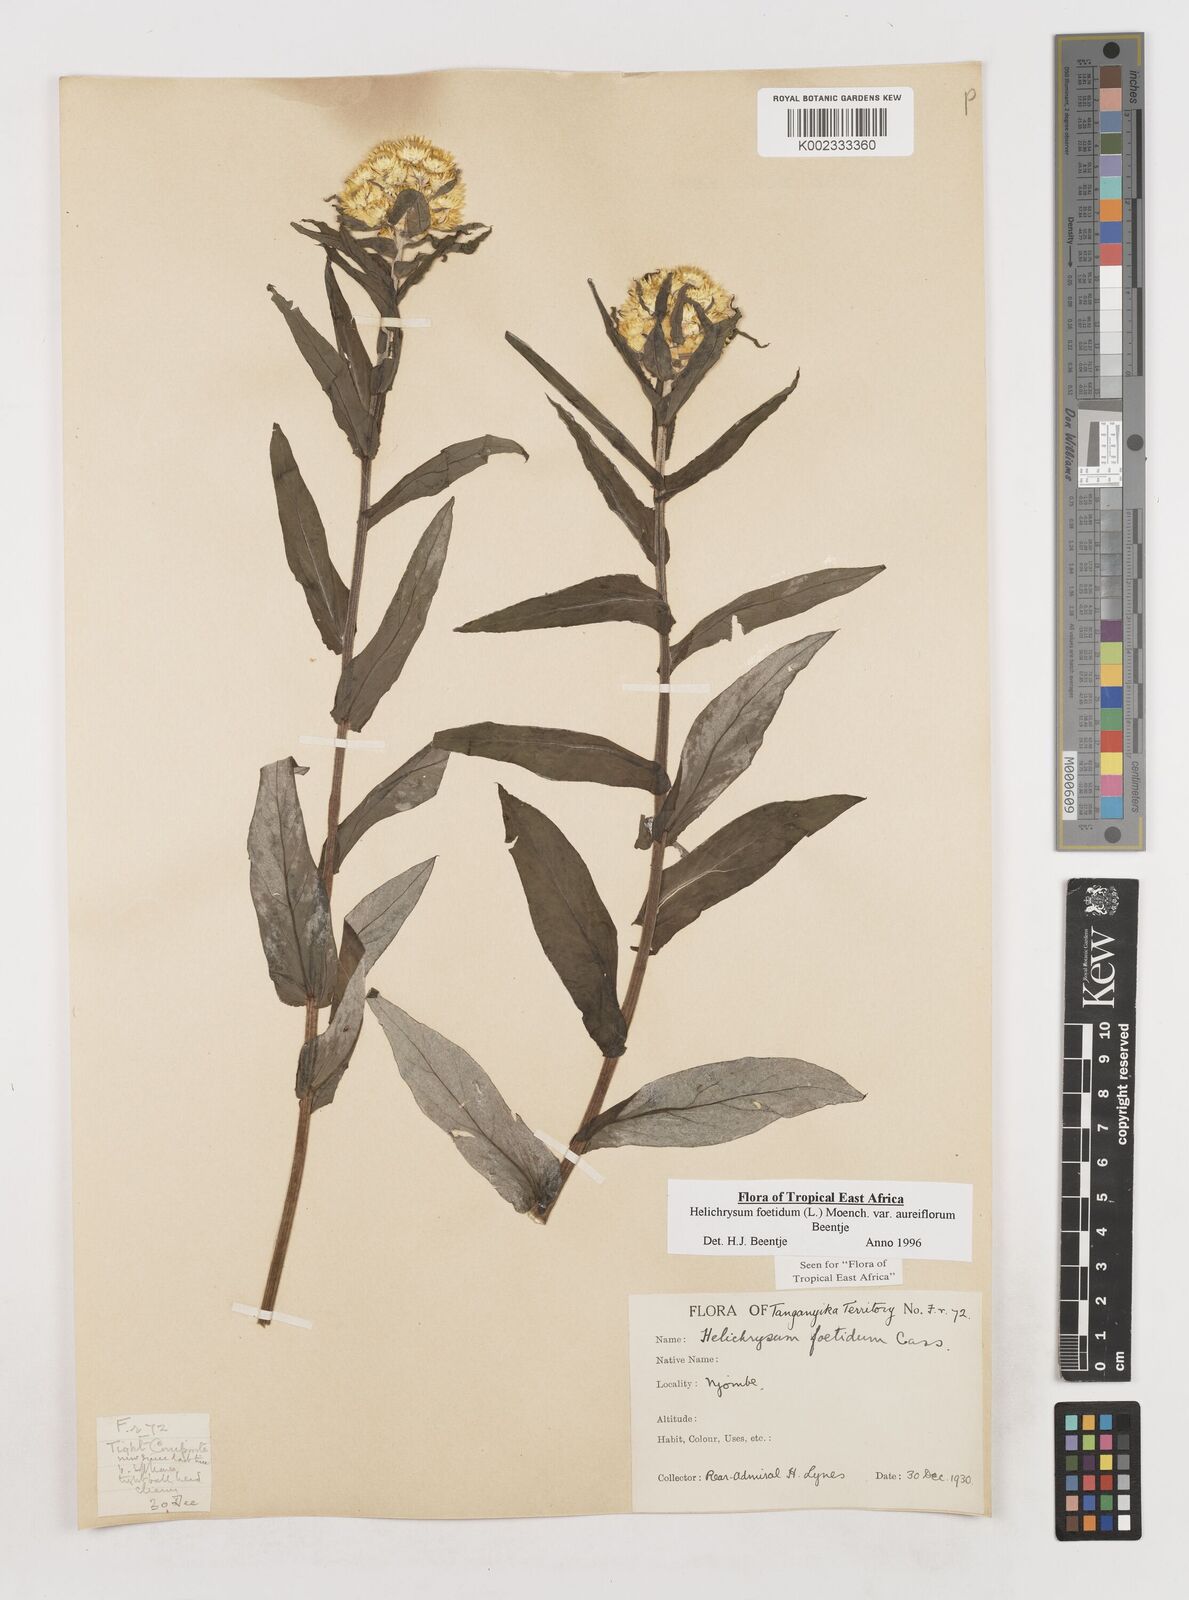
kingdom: Plantae
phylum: Tracheophyta
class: Magnoliopsida
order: Asterales
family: Asteraceae
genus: Helichrysum
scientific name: Helichrysum foetidum
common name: Stinking everlasting
